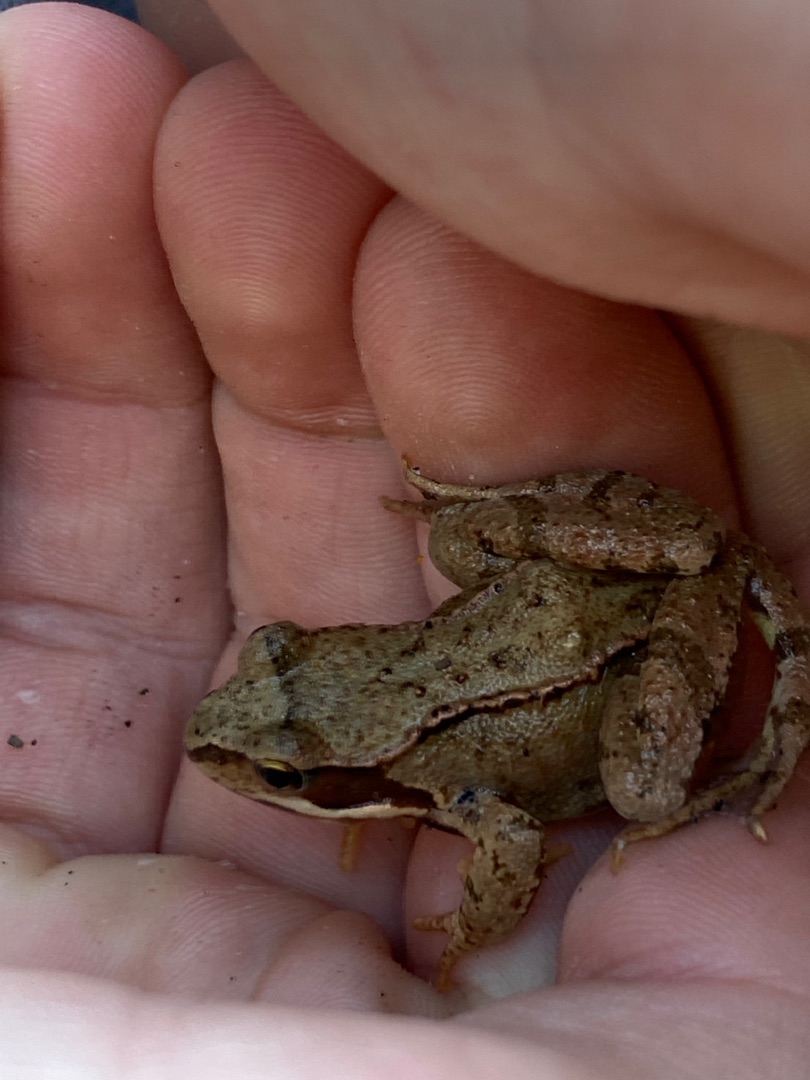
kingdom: Animalia
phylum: Chordata
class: Amphibia
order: Anura
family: Ranidae
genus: Rana
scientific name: Rana temporaria
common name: Butsnudet frø
